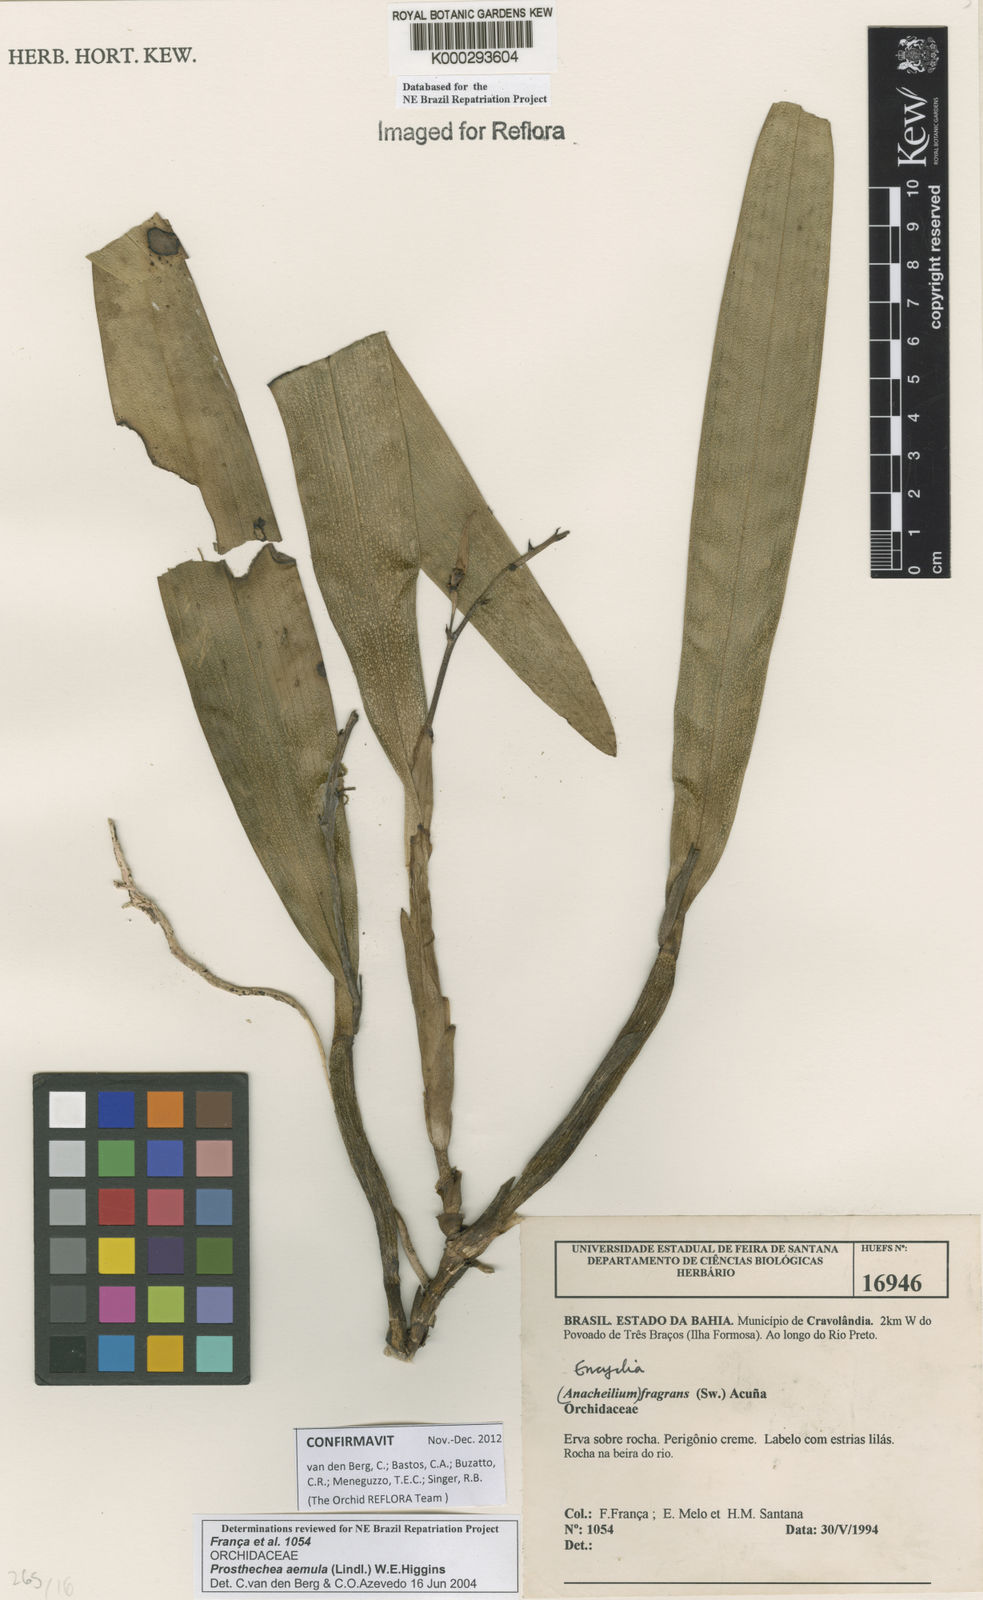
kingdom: Plantae
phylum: Tracheophyta
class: Liliopsida
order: Asparagales
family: Orchidaceae
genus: Prosthechea
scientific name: Prosthechea aemula
